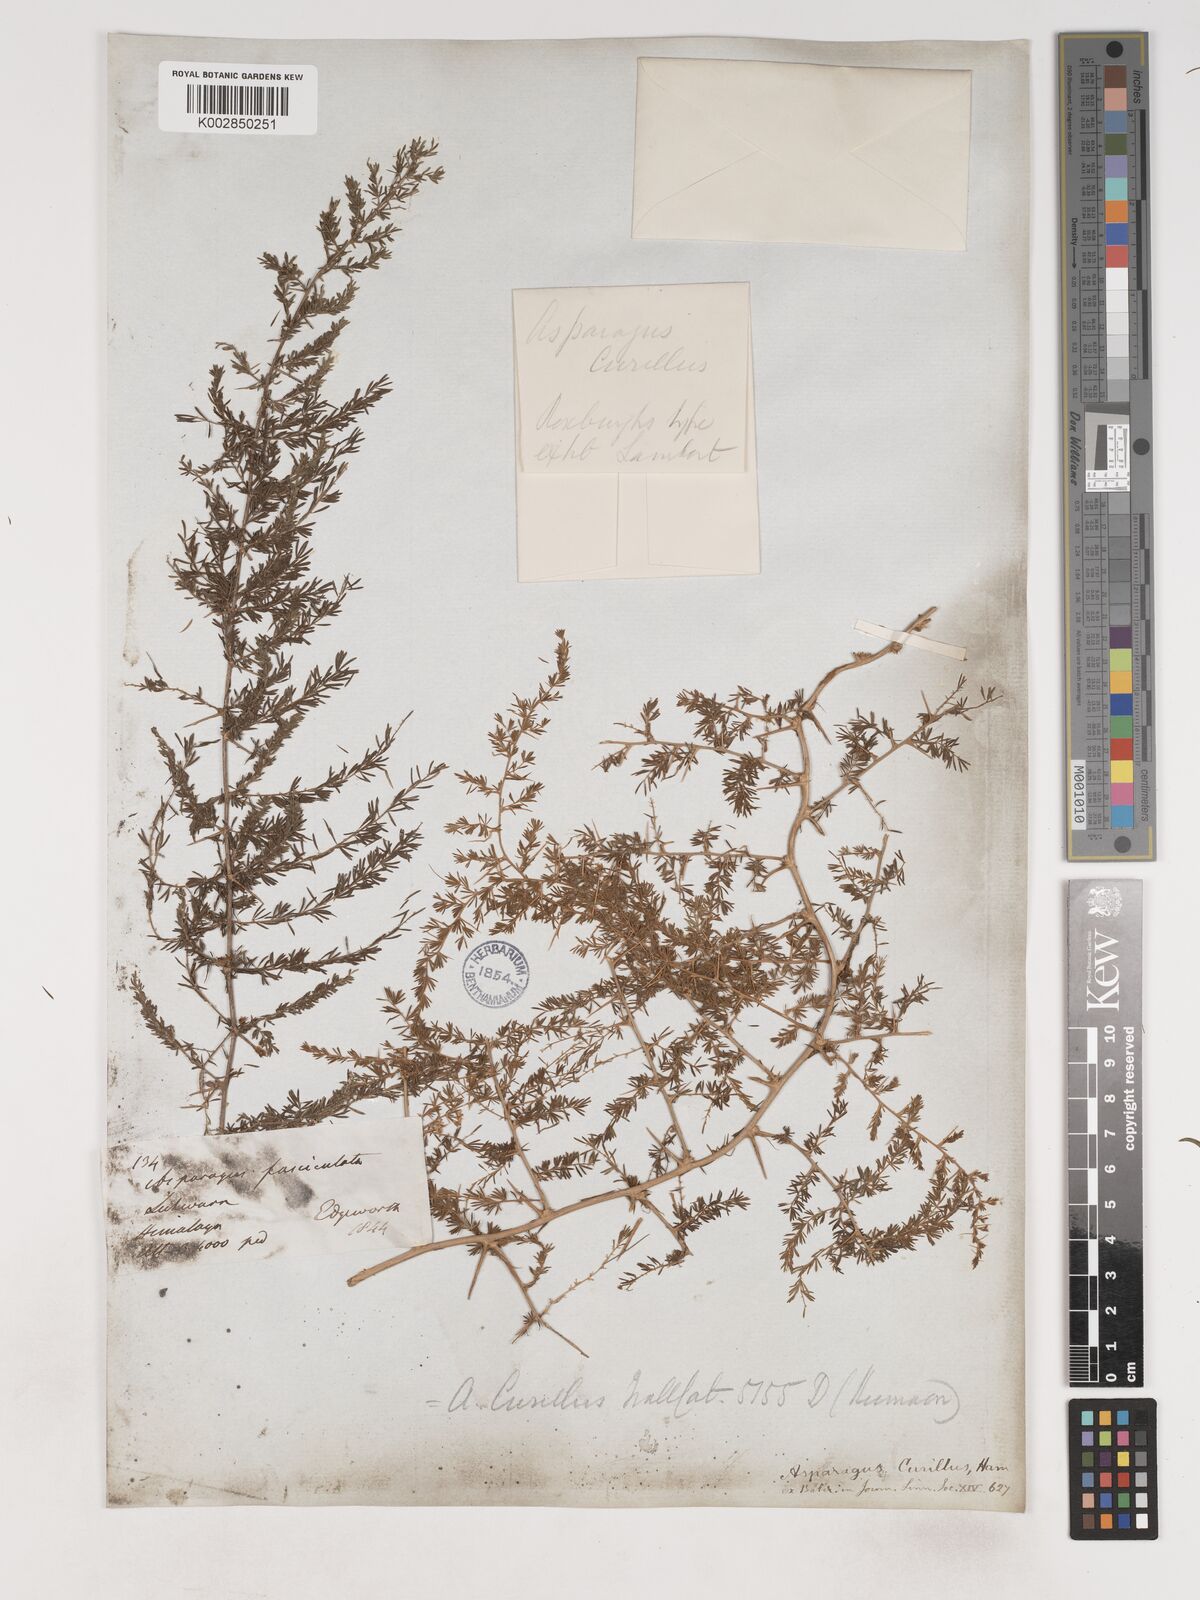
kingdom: Plantae
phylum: Tracheophyta
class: Liliopsida
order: Asparagales
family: Asparagaceae
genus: Asparagus
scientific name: Asparagus curillus
